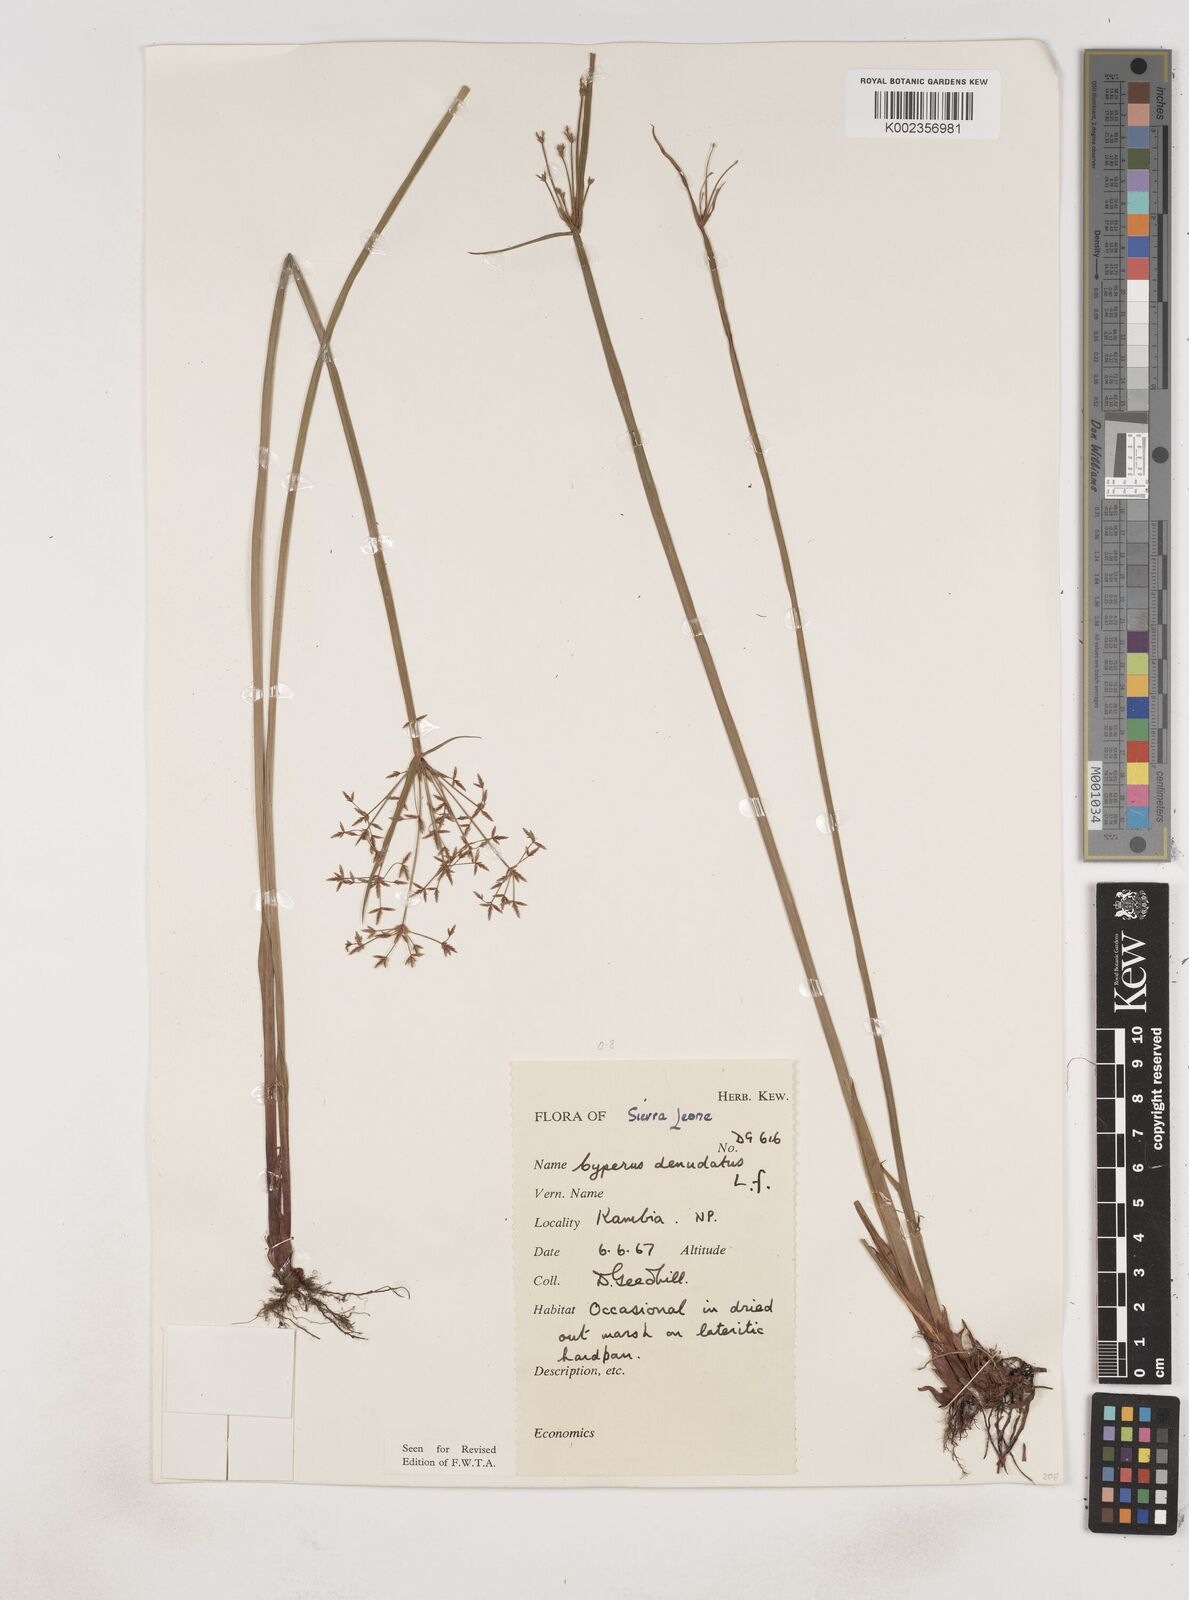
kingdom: Plantae
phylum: Tracheophyta
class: Liliopsida
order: Poales
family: Cyperaceae
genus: Cyperus
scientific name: Cyperus denudatus
